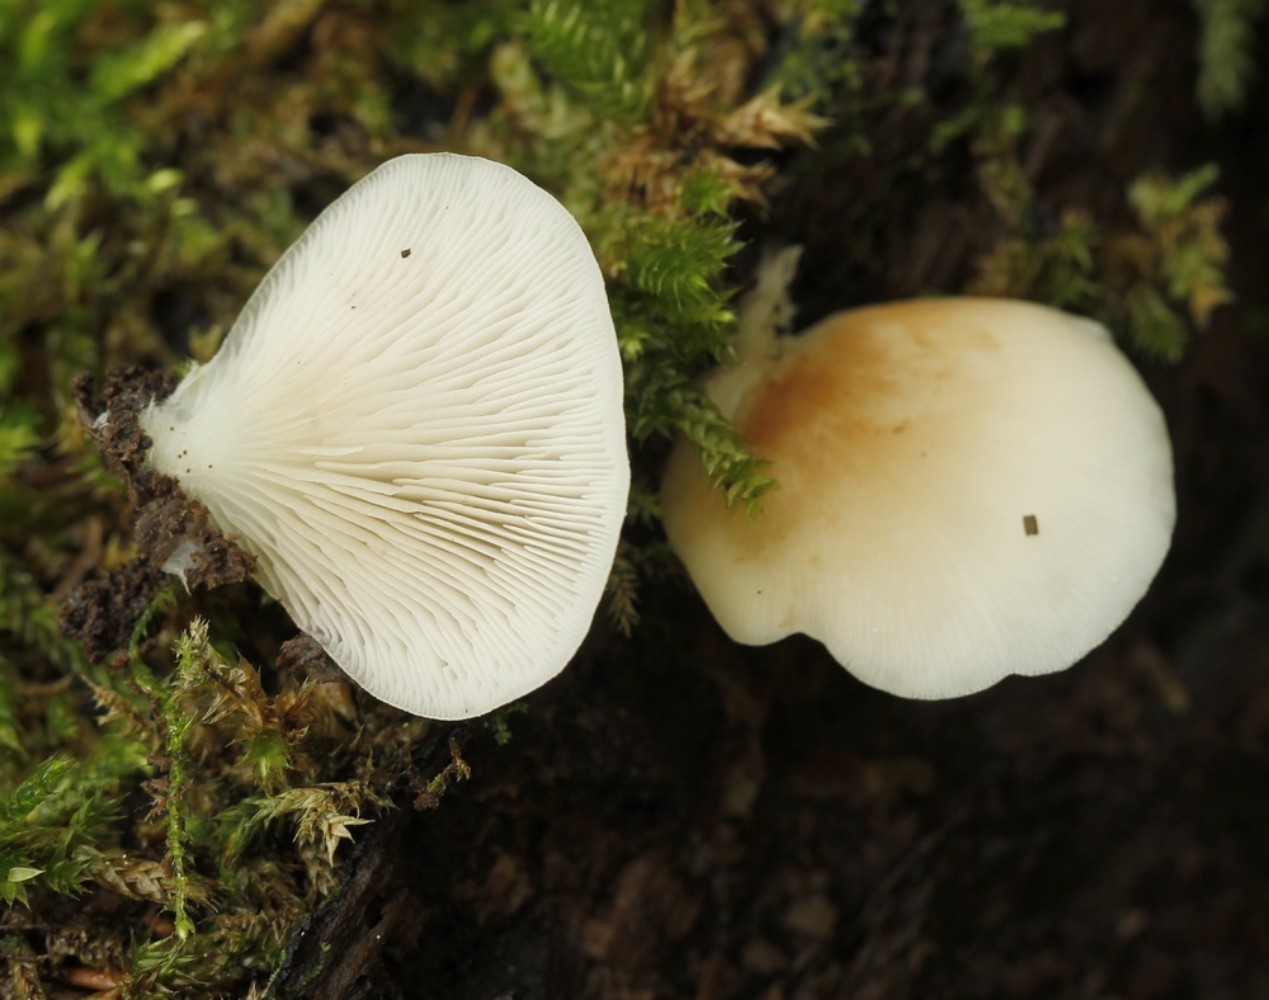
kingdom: Fungi
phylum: Basidiomycota
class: Agaricomycetes
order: Agaricales
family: Crepidotaceae
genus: Crepidotus
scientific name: Crepidotus applanatus
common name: tvefarvet muslingesvamp
